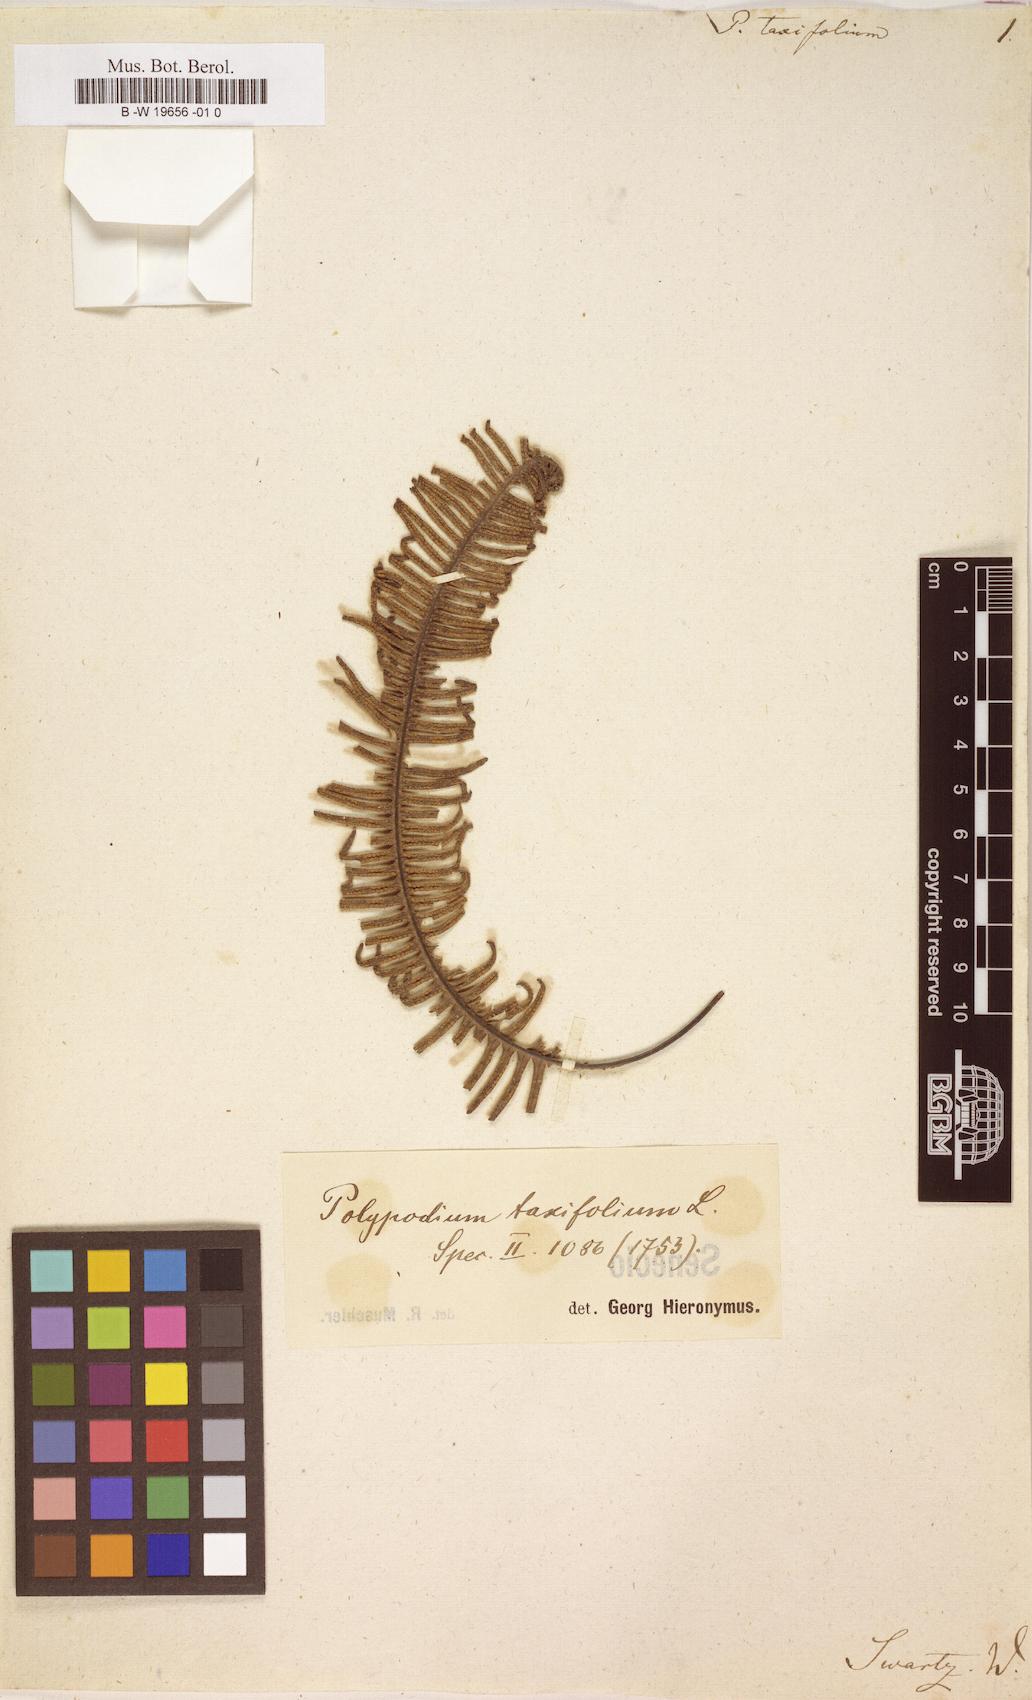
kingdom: Plantae
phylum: Tracheophyta
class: Polypodiopsida
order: Polypodiales
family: Polypodiaceae
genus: Mycopteris
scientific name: Mycopteris taxifolia
